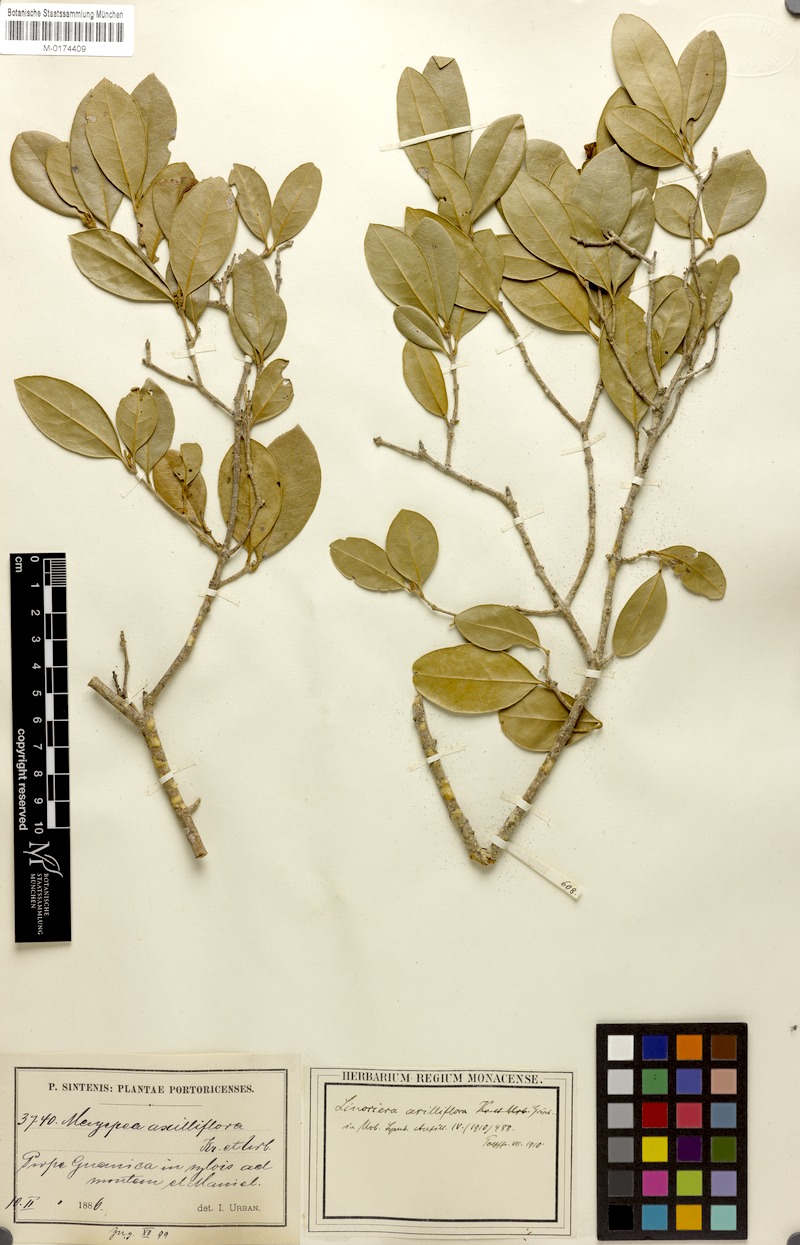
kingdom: Plantae
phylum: Tracheophyta
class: Magnoliopsida
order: Lamiales
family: Oleaceae
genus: Chionanthus
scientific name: Chionanthus axilliflorus
